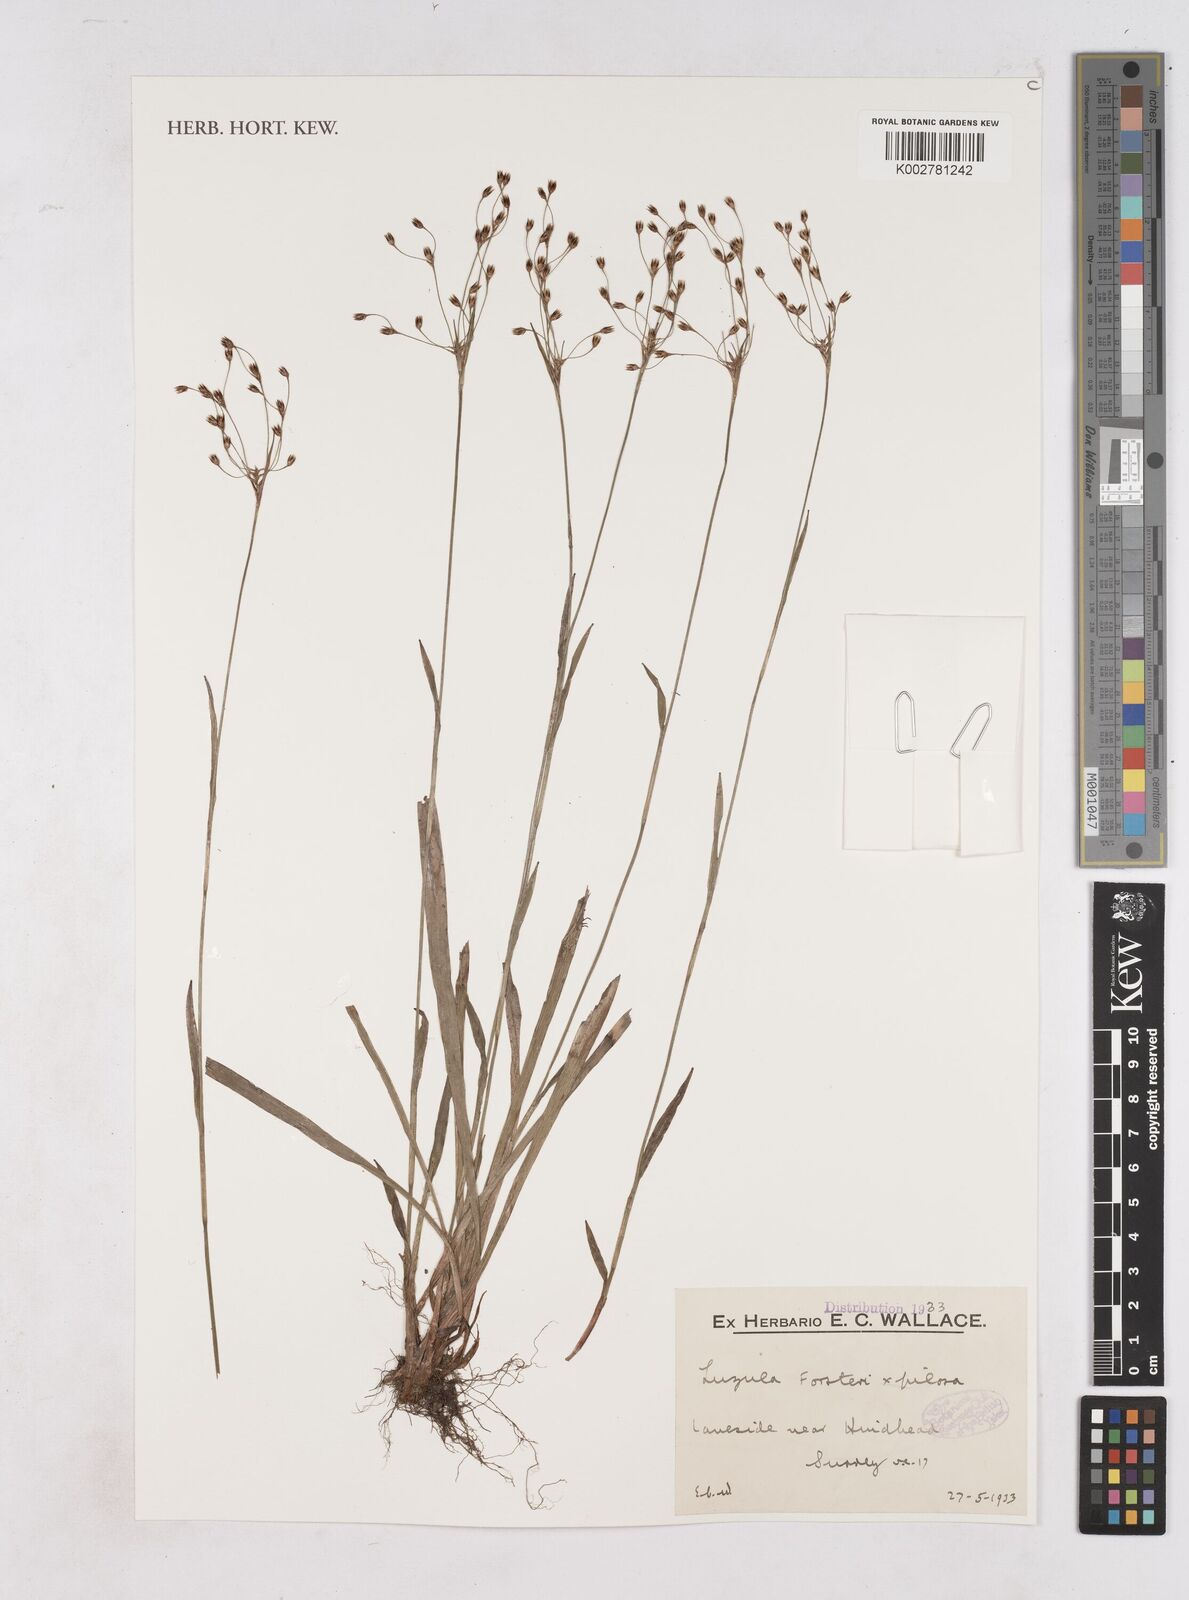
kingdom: Plantae
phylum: Tracheophyta
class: Liliopsida
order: Poales
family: Juncaceae
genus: Luzula
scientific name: Luzula forsteri
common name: Southern wood-rush
